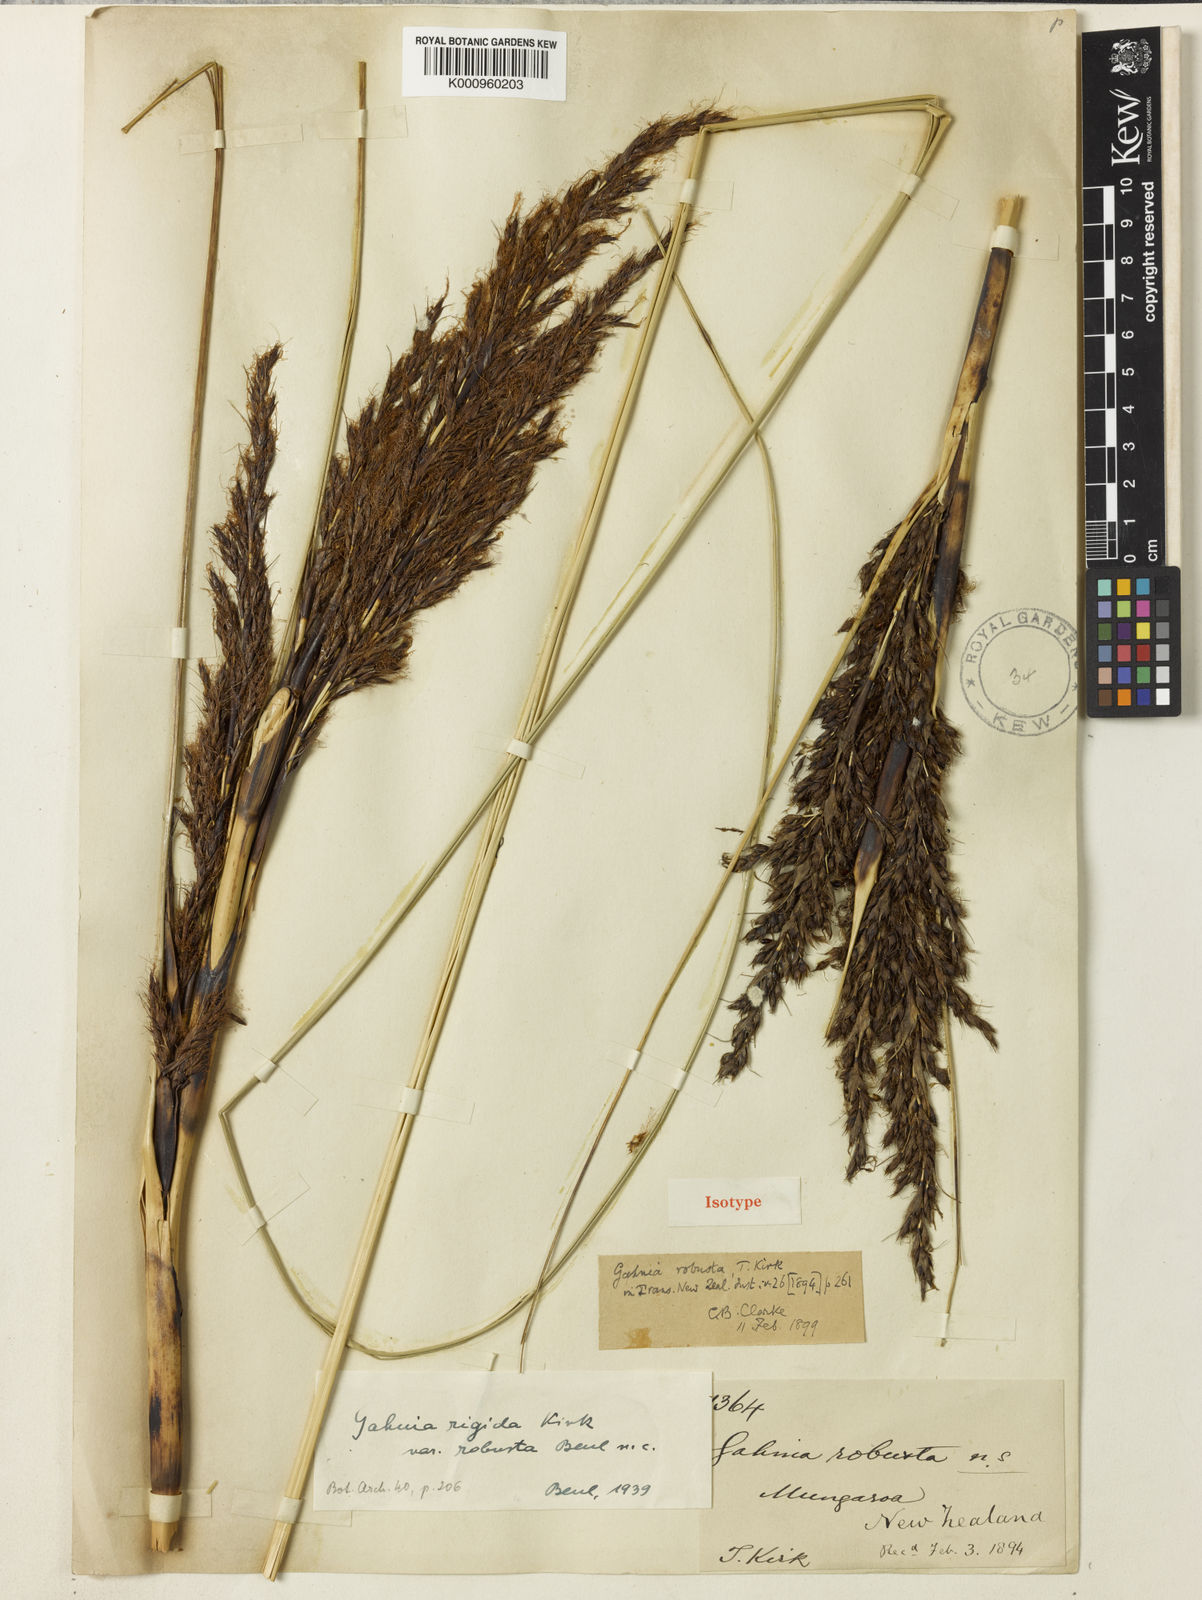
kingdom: Plantae
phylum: Tracheophyta
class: Liliopsida
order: Poales
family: Cyperaceae
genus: Gahnia
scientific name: Gahnia rigida
